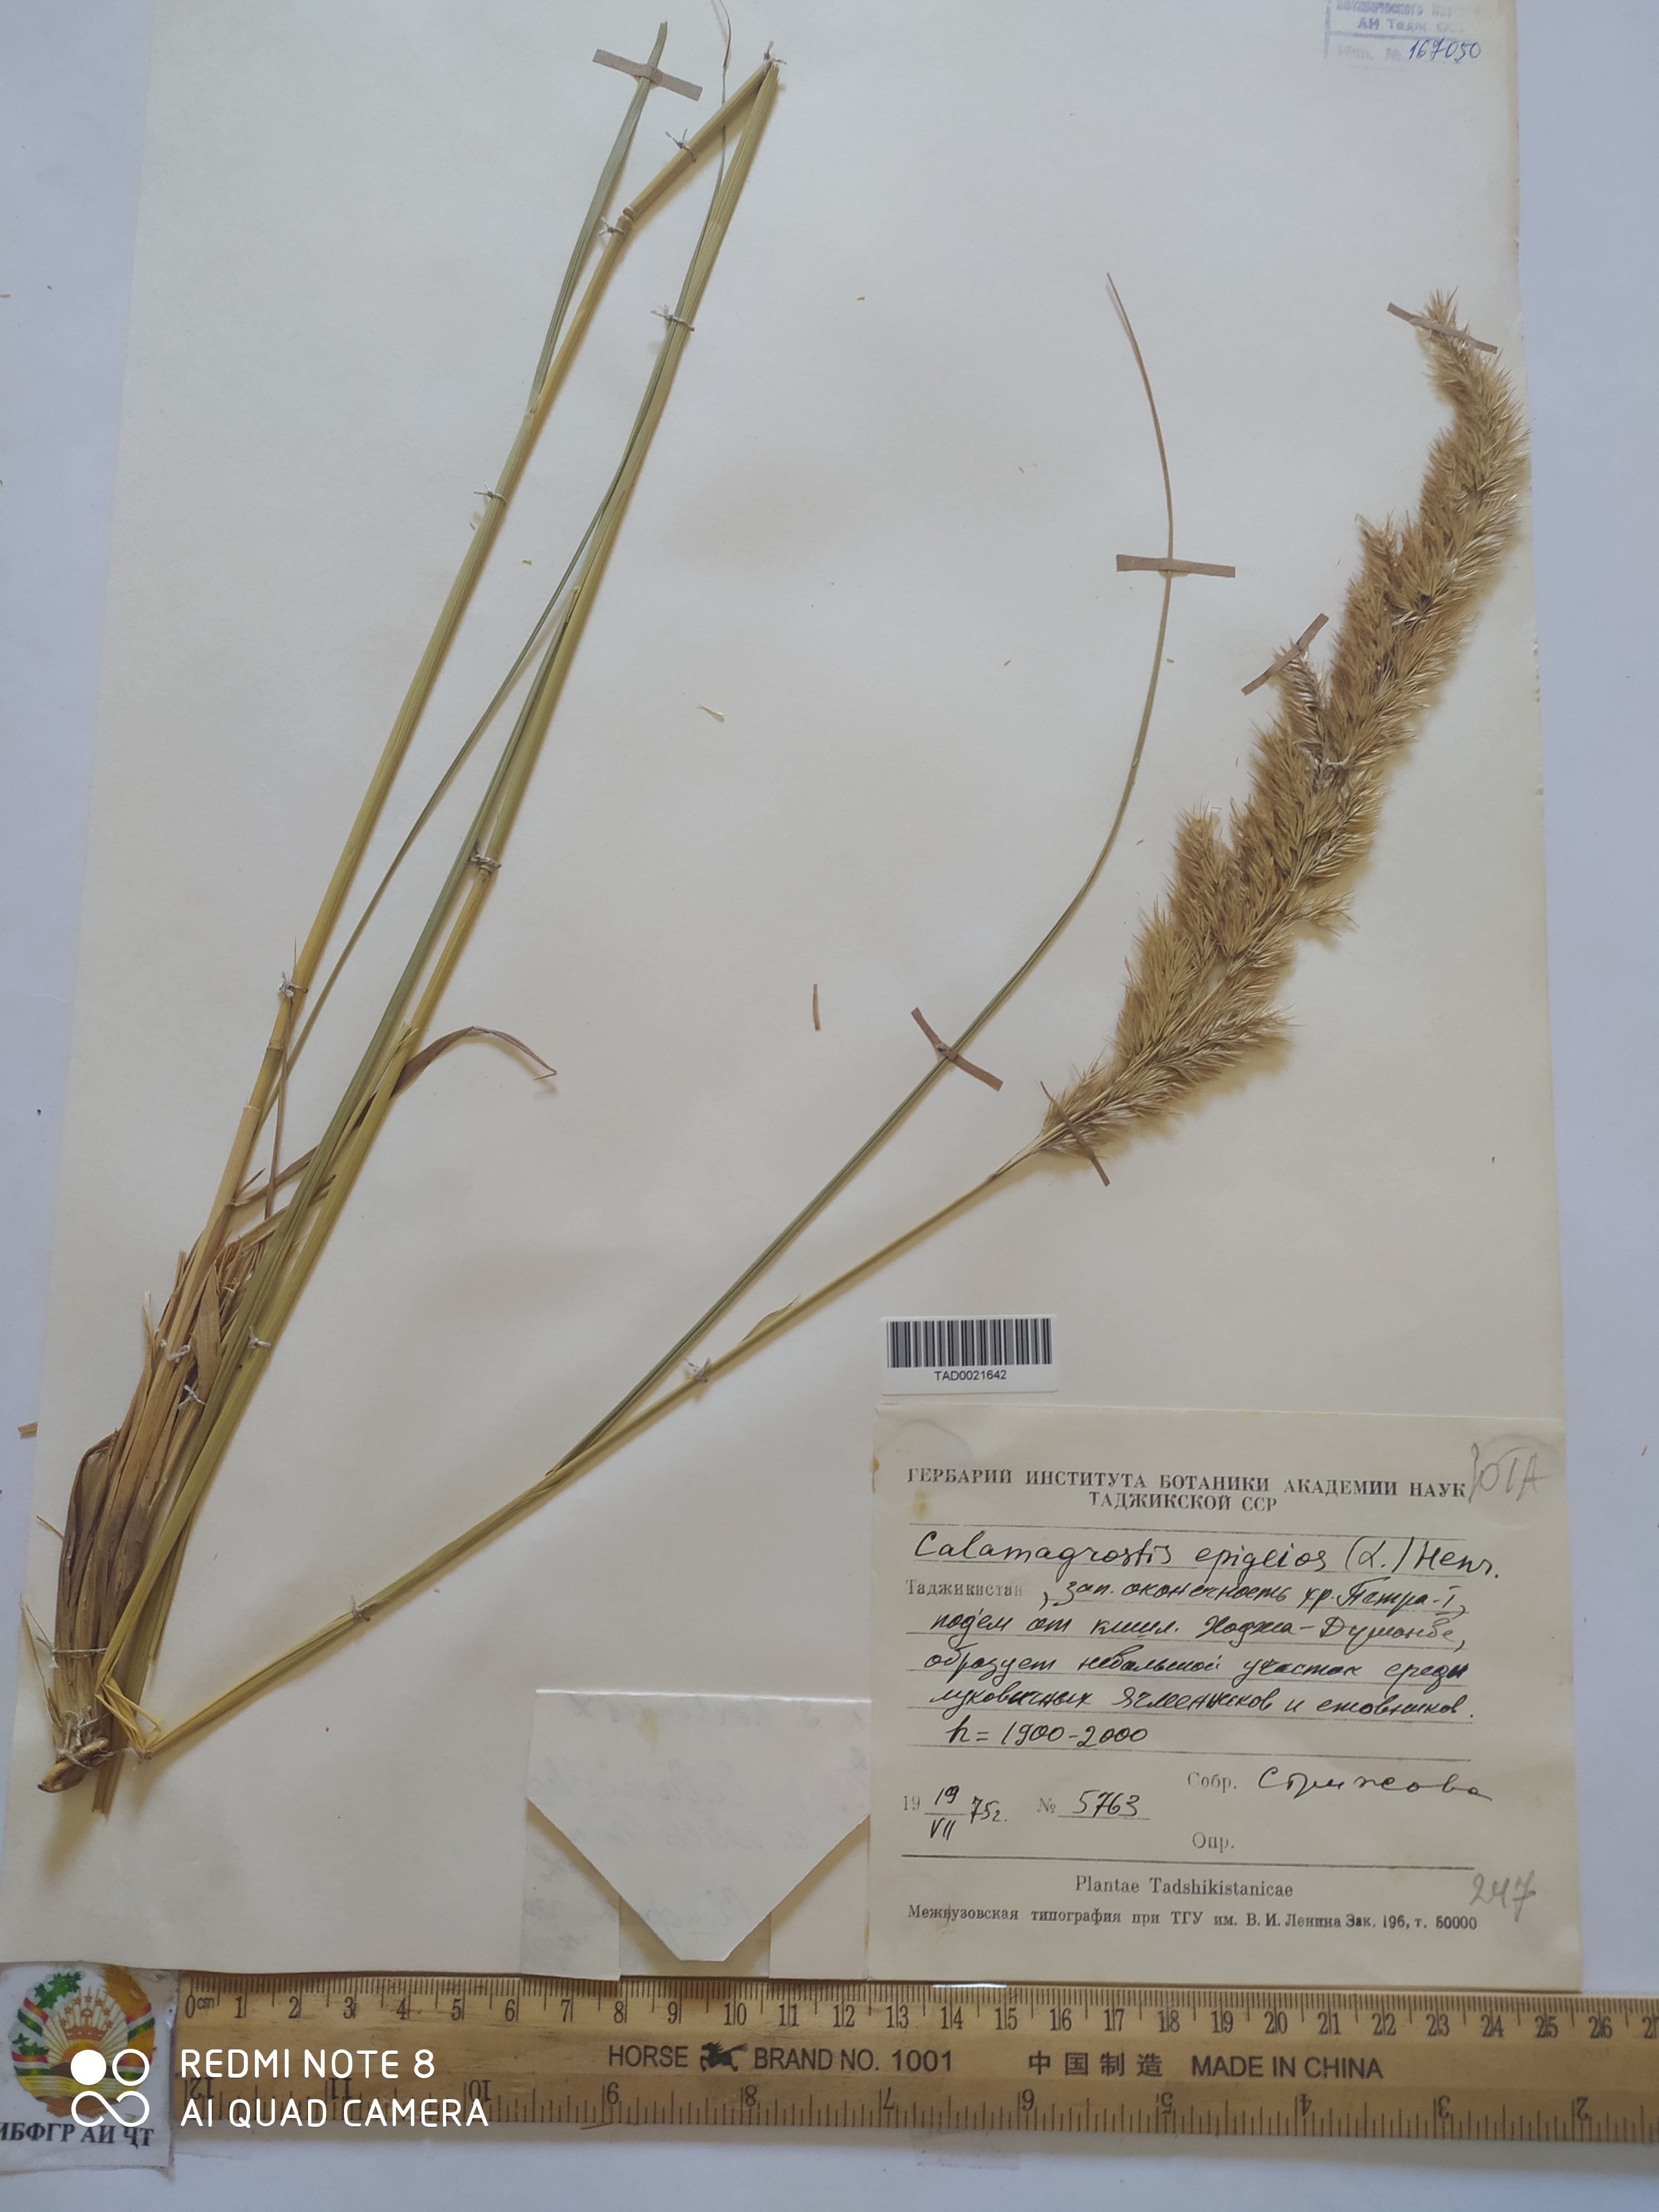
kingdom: Plantae
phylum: Tracheophyta
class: Liliopsida
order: Poales
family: Poaceae
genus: Calamagrostis
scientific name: Calamagrostis epigejos
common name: Wood small-reed
